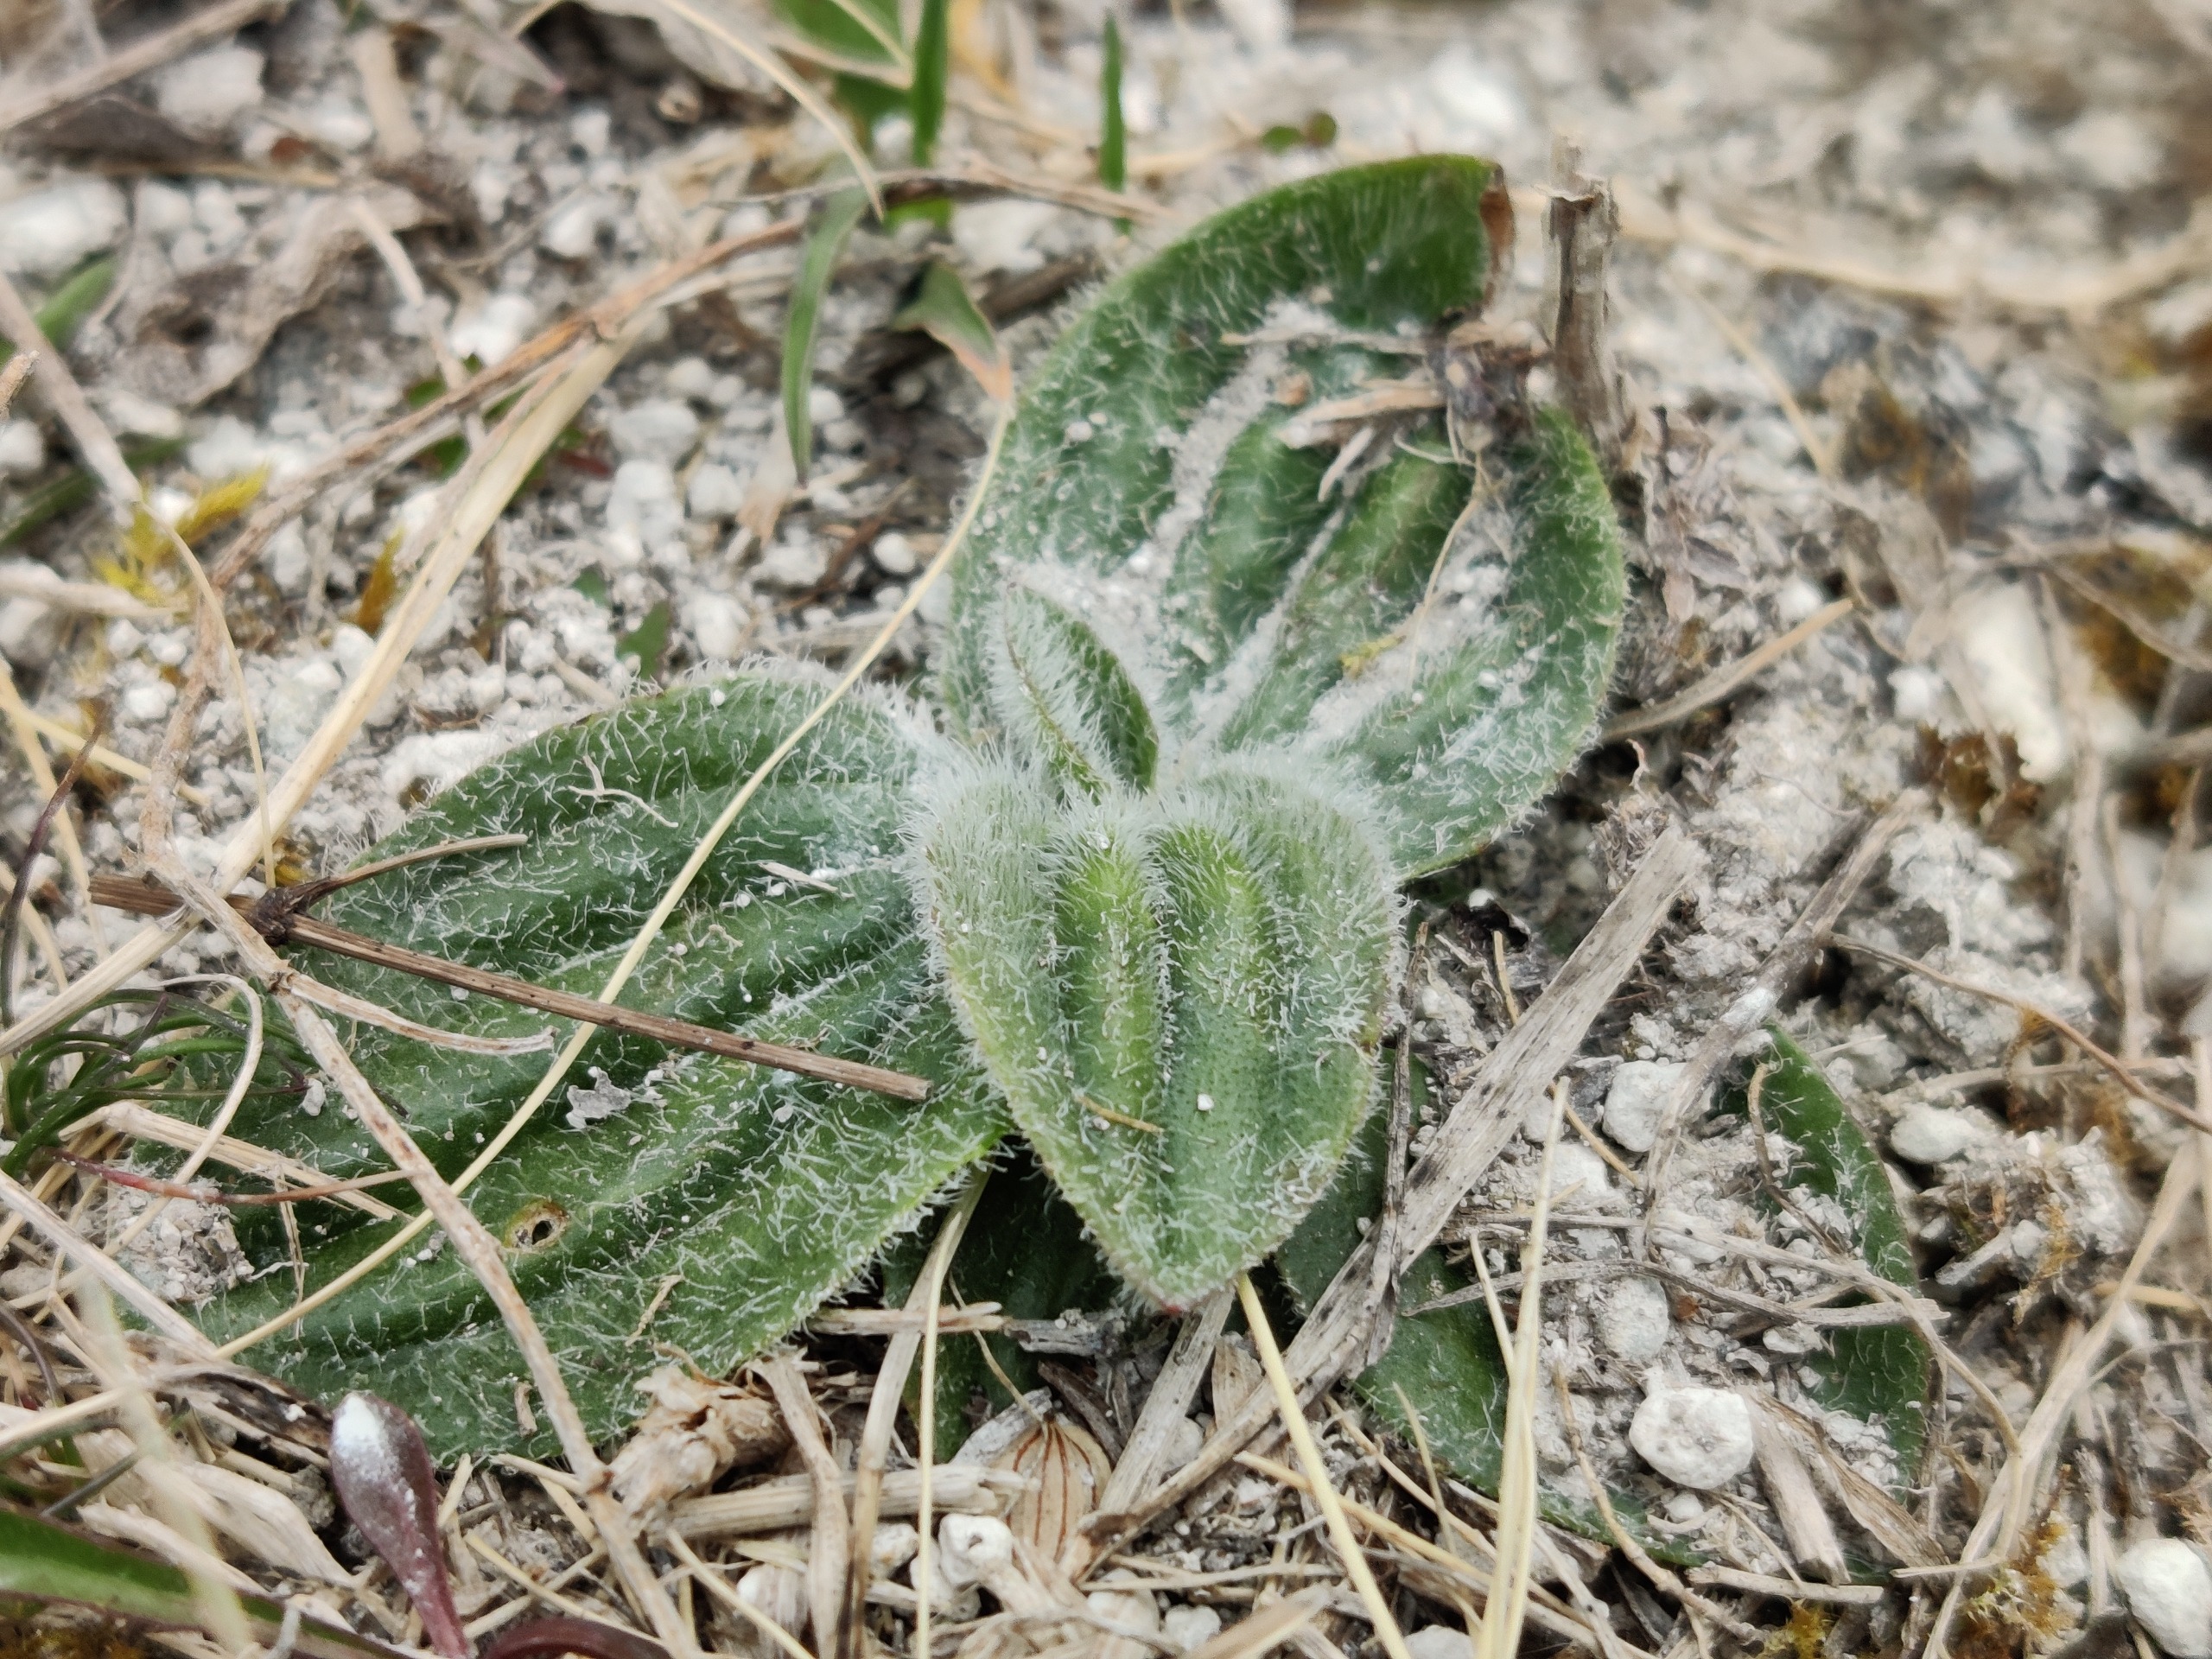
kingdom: Plantae
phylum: Tracheophyta
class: Magnoliopsida
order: Lamiales
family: Plantaginaceae
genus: Plantago
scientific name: Plantago media
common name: Dunet vejbred
